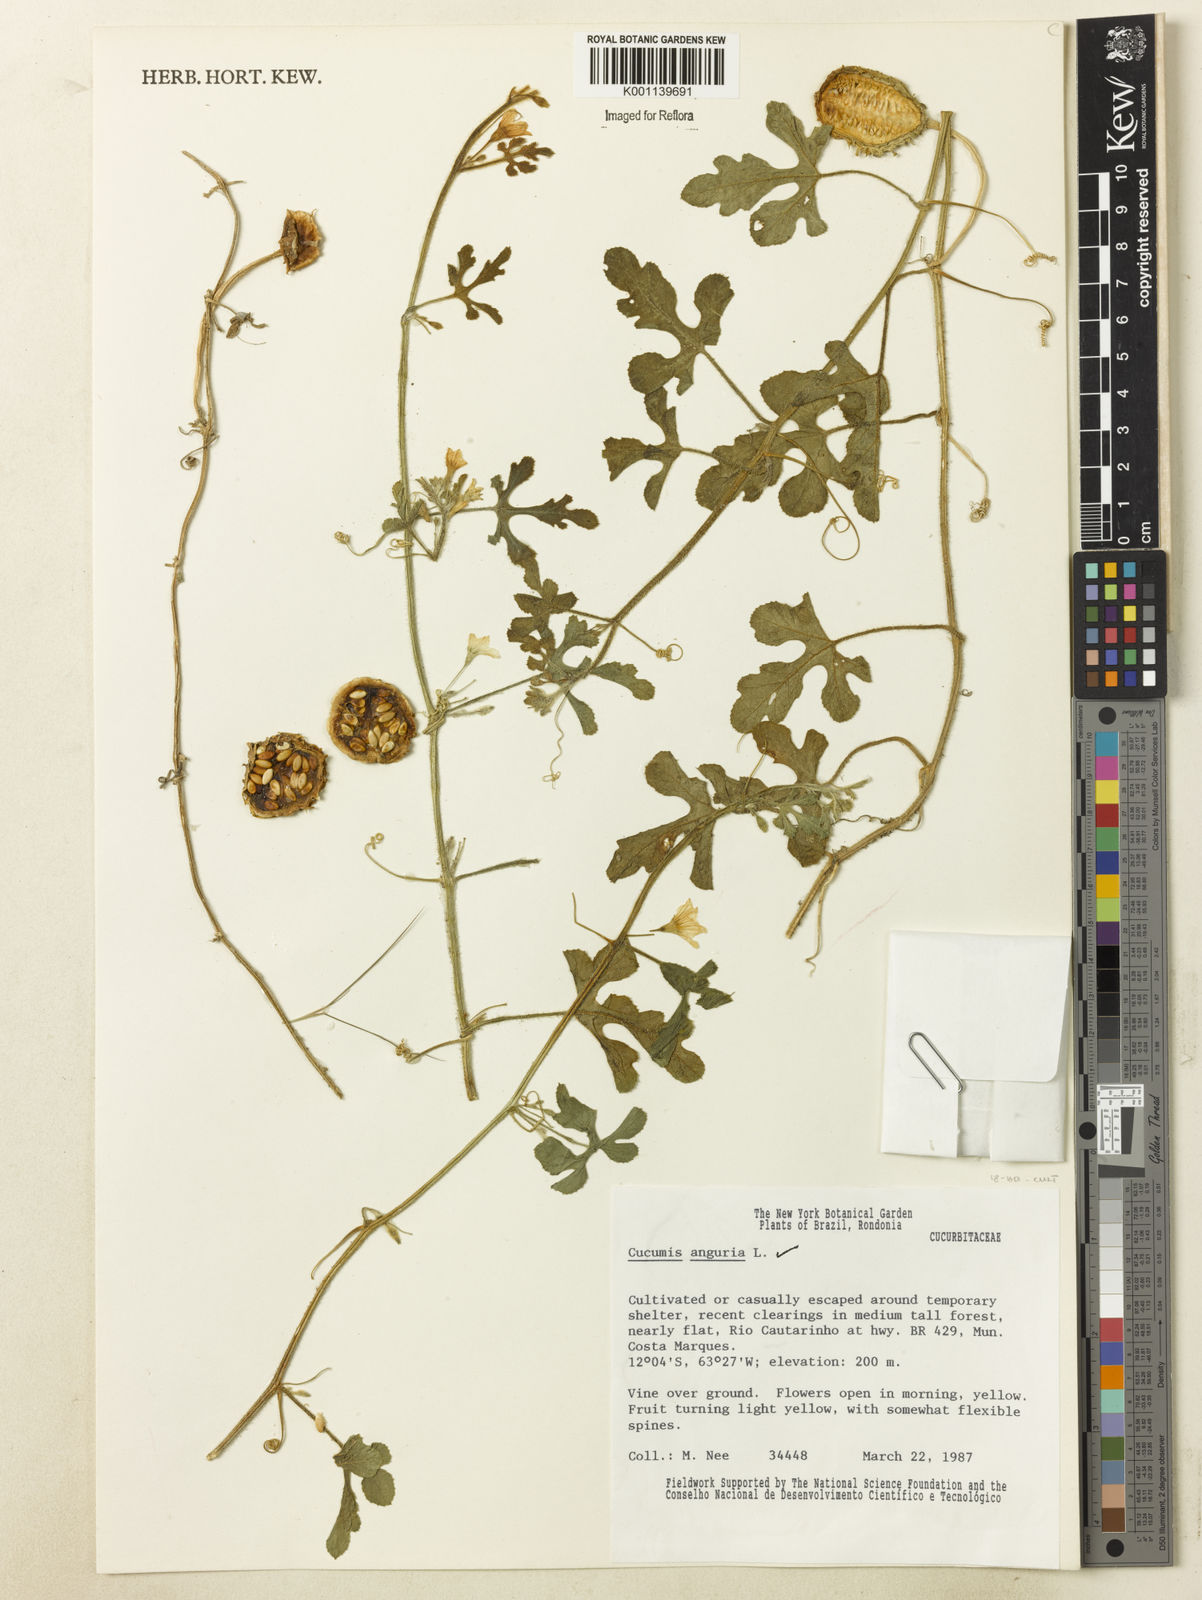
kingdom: Plantae
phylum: Tracheophyta
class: Magnoliopsida
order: Cucurbitales
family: Cucurbitaceae
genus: Cucumis
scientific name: Cucumis anguria
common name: West indian gherkin
